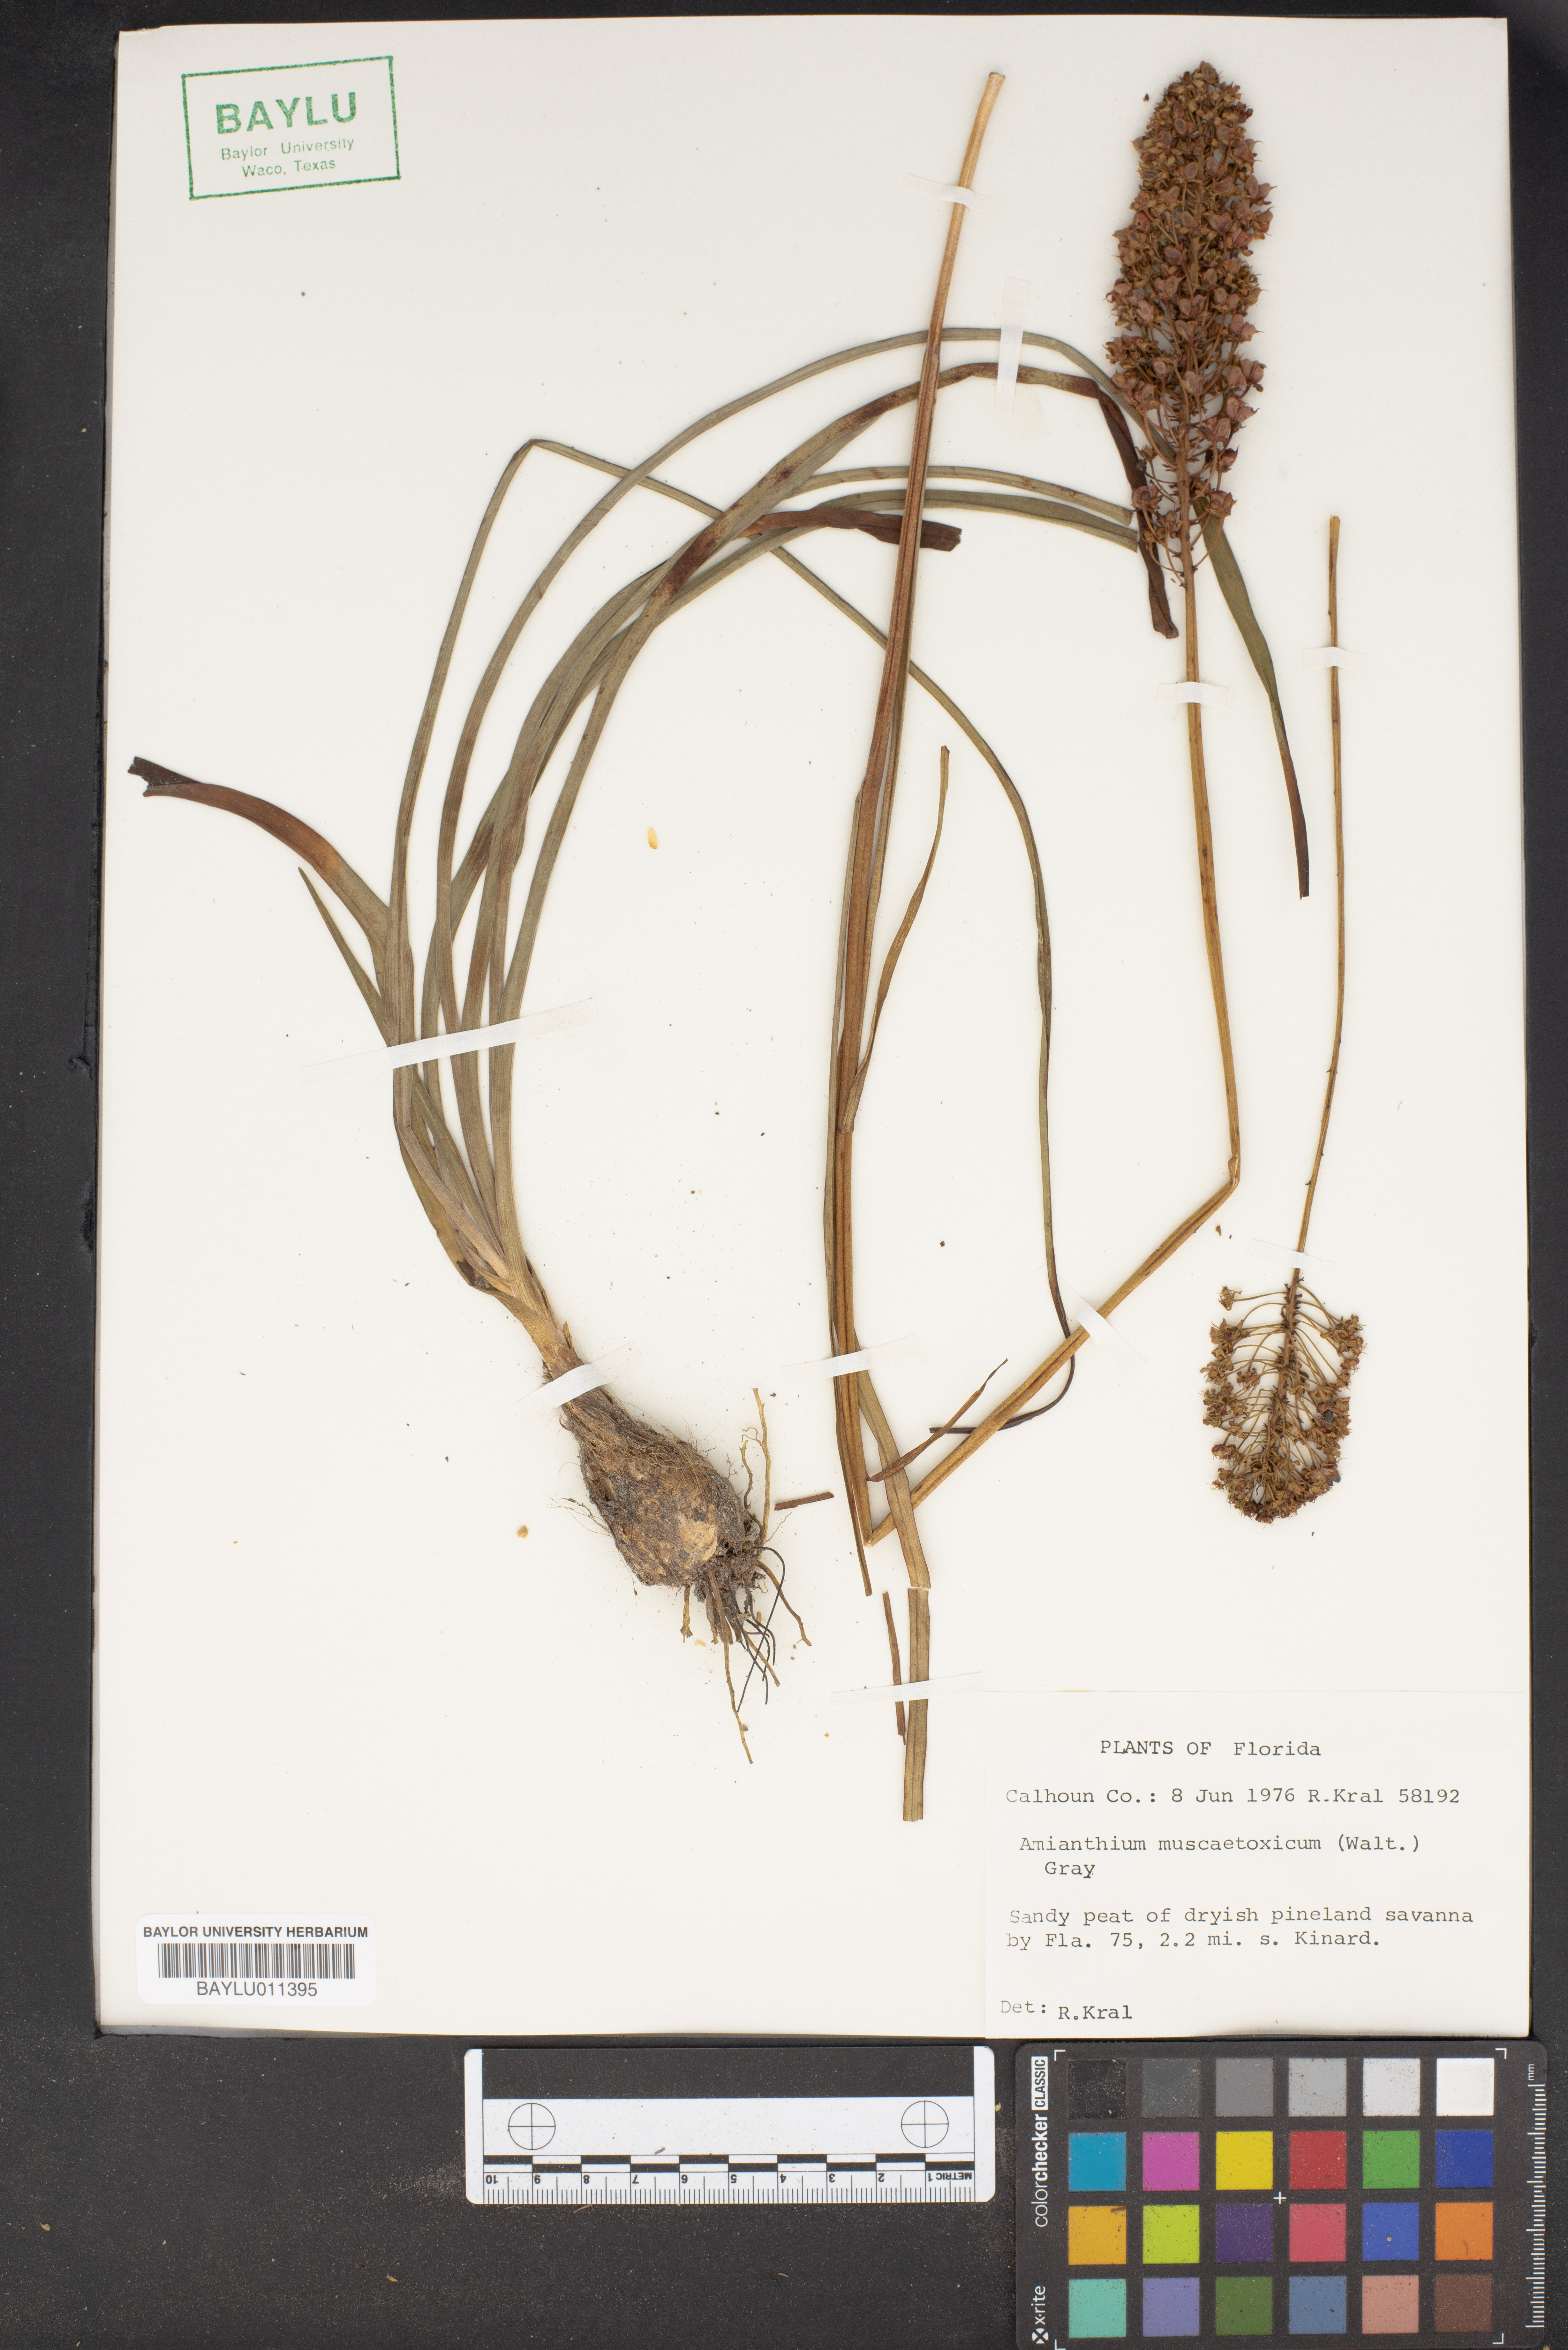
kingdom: Plantae
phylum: Tracheophyta
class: Liliopsida
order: Liliales
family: Melanthiaceae
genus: Amianthium
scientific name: Amianthium muscitoxicum
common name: Fly-poison
